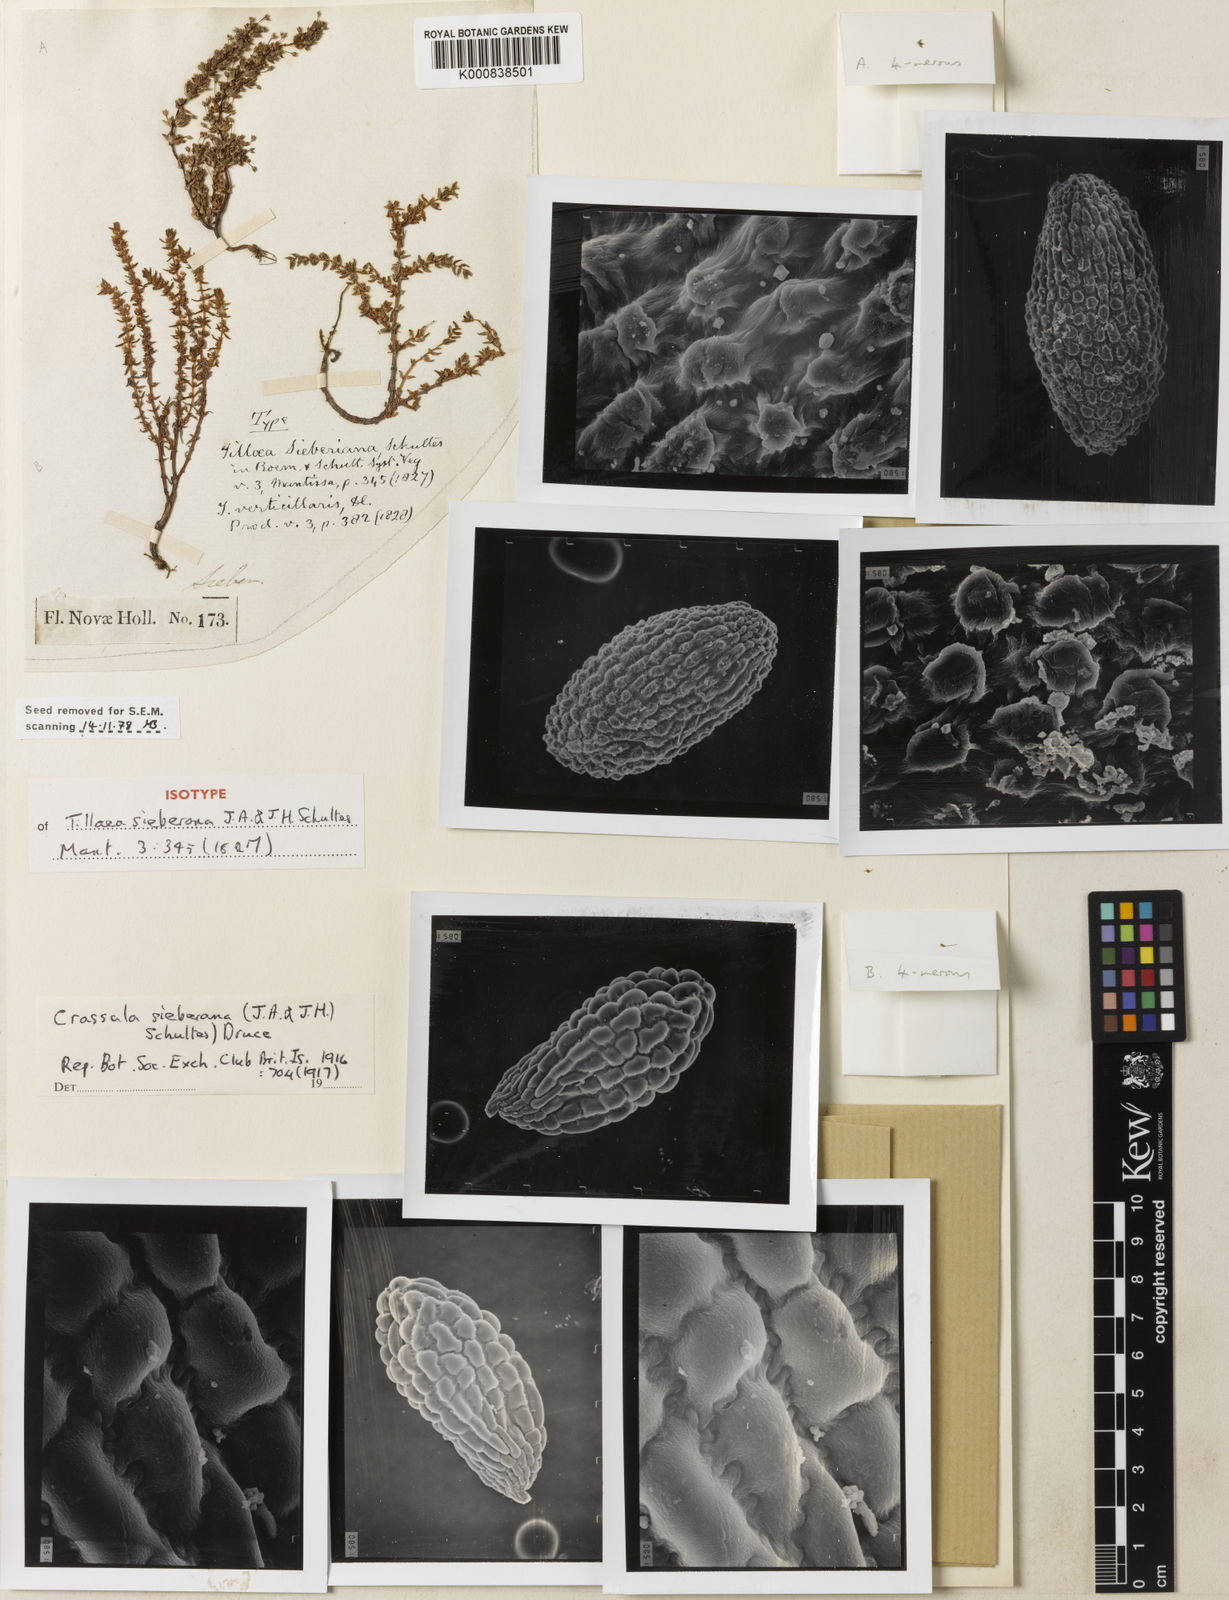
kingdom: Plantae
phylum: Tracheophyta
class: Magnoliopsida
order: Saxifragales
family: Crassulaceae
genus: Crassula
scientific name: Crassula sieberiana
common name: Siberian pygmyweed
